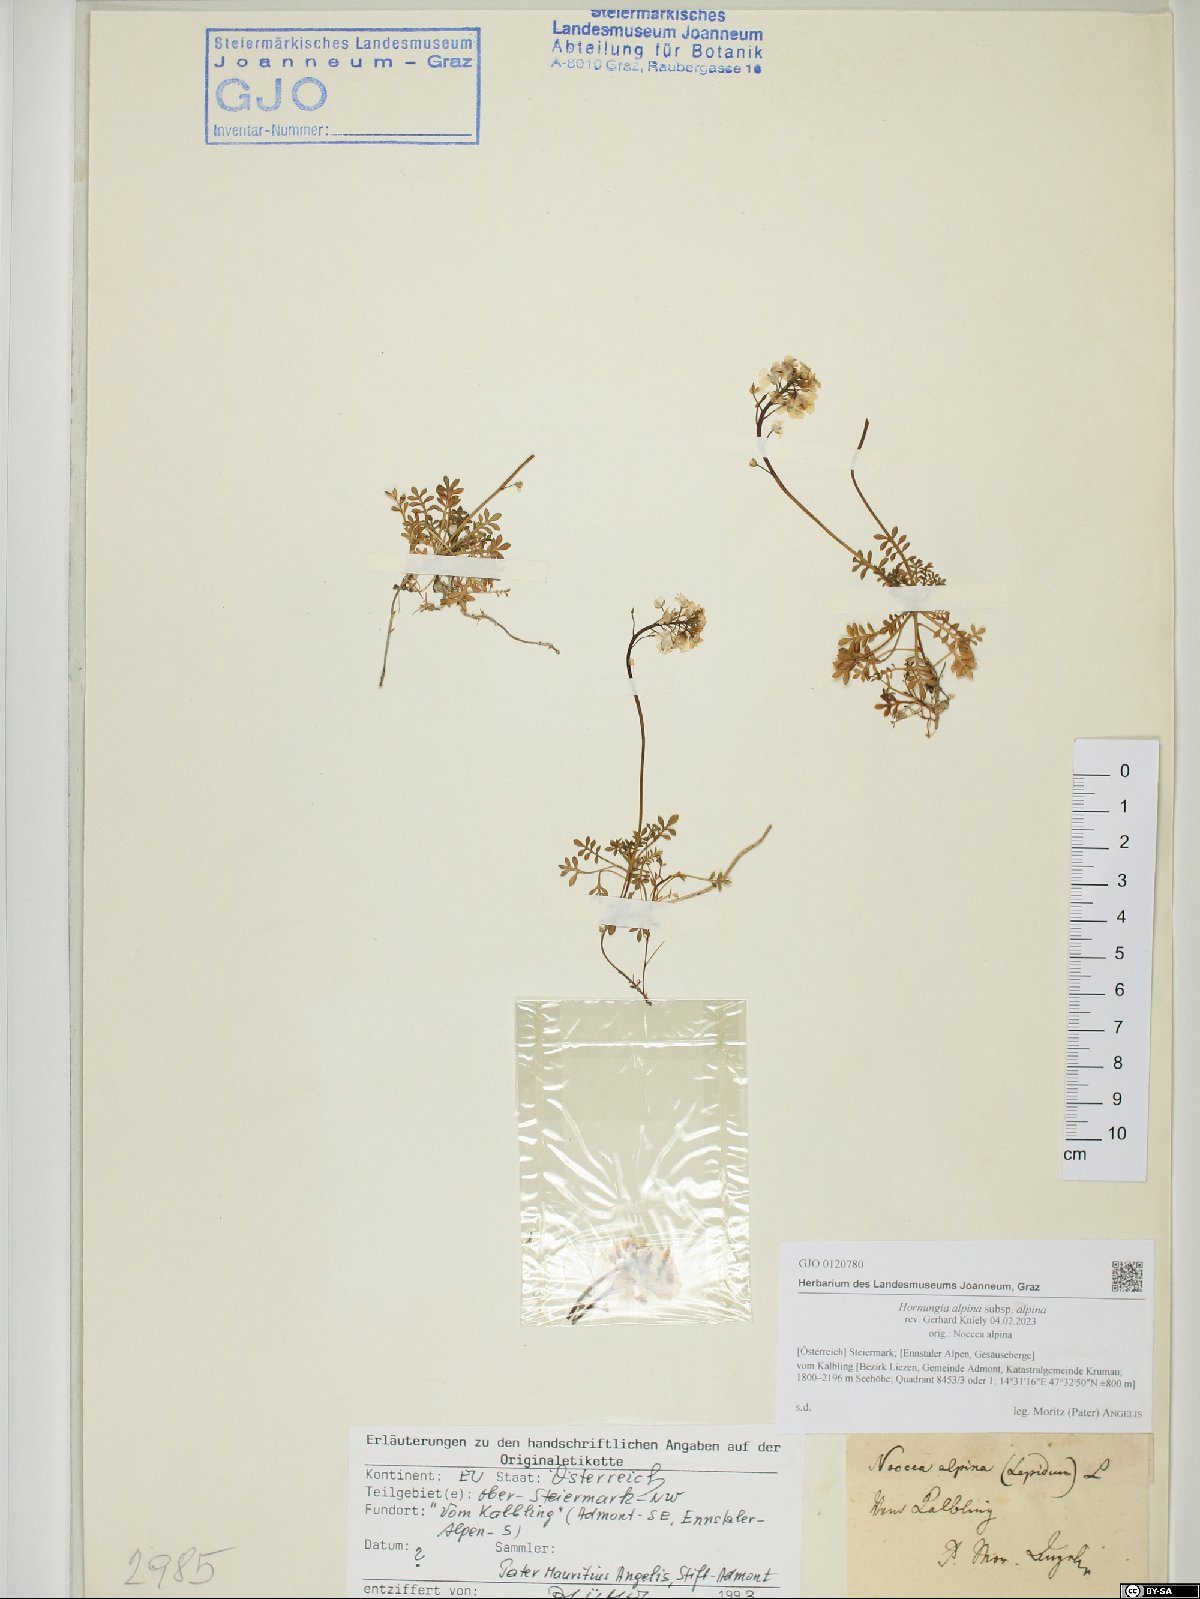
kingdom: Plantae
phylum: Tracheophyta
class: Magnoliopsida
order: Brassicales
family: Brassicaceae
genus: Hornungia
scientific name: Hornungia alpina
